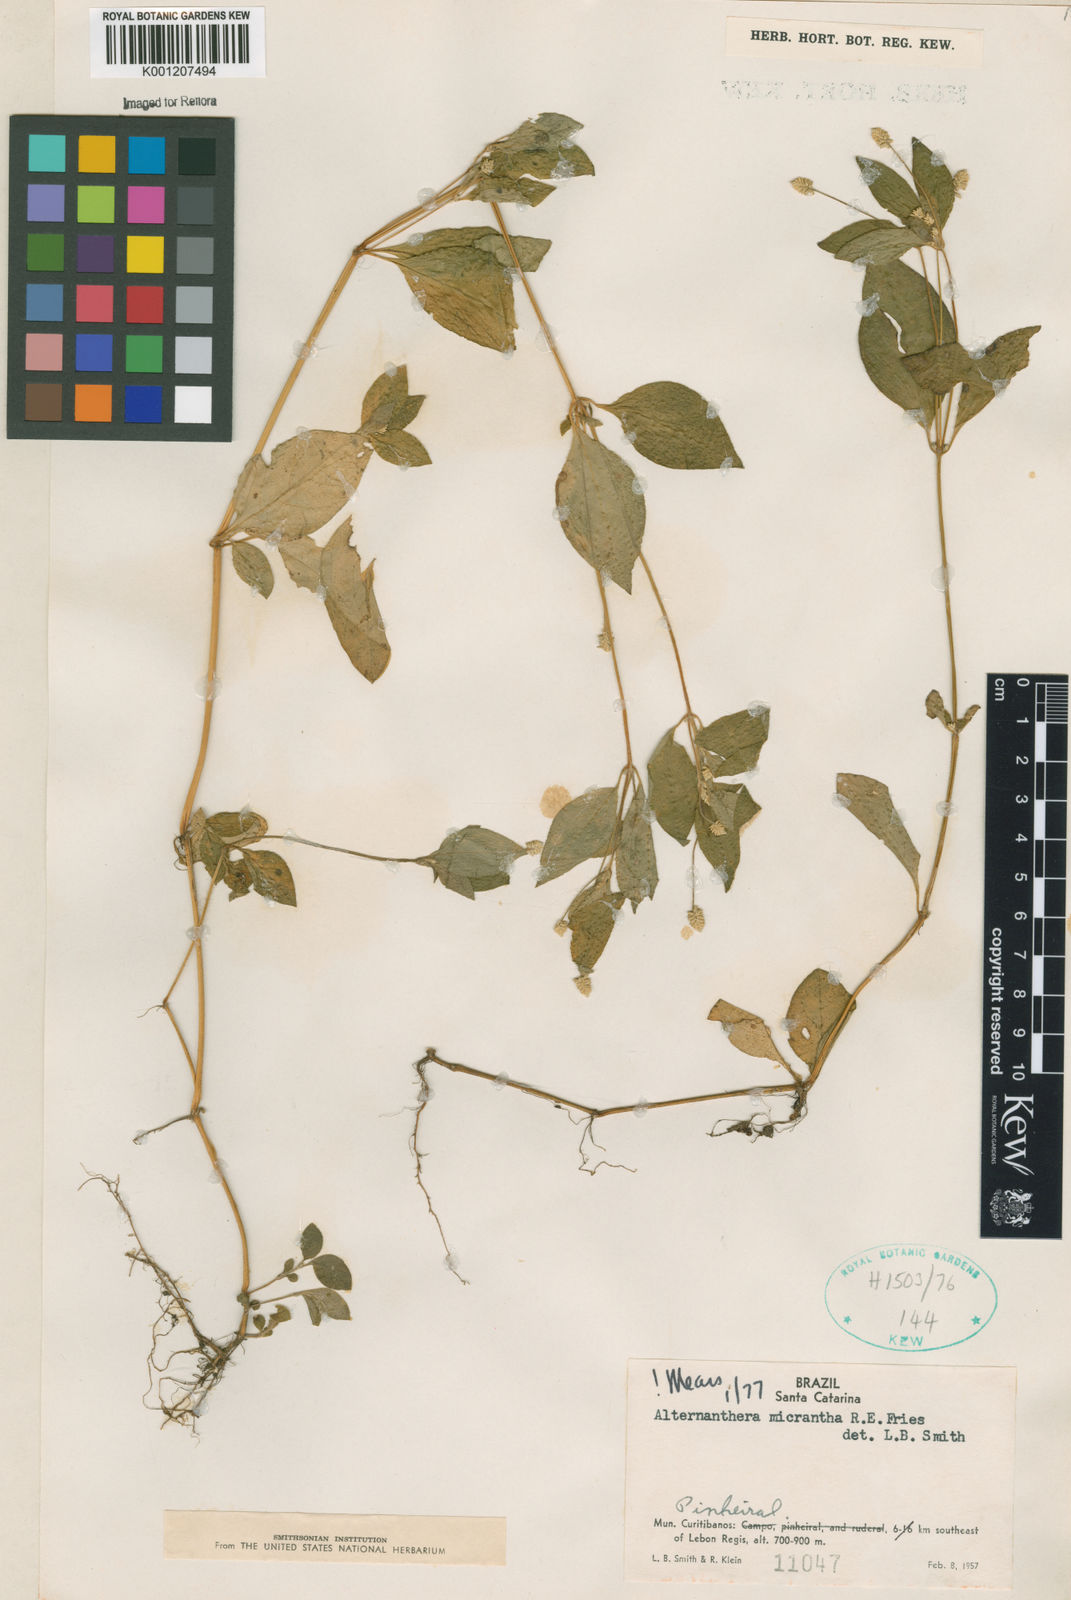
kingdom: Plantae
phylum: Tracheophyta
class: Magnoliopsida
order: Caryophyllales
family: Amaranthaceae
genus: Alternanthera
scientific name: Alternanthera micrantha
